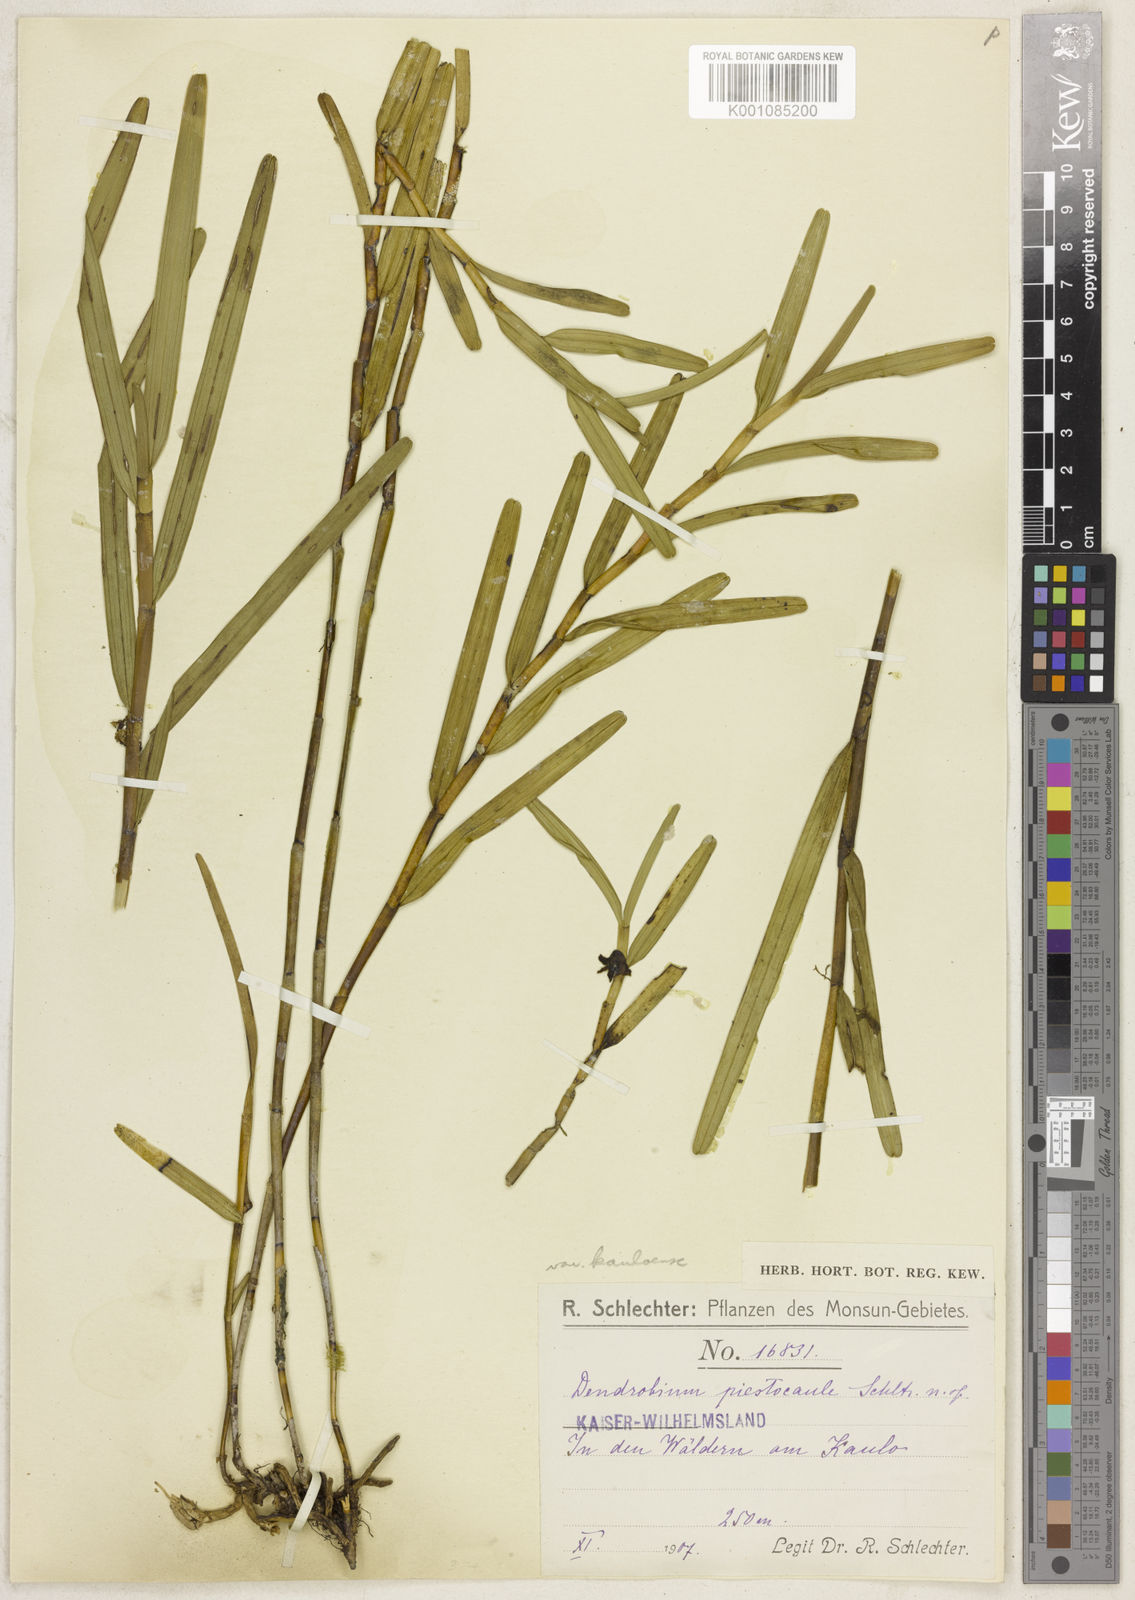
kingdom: Plantae
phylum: Tracheophyta
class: Liliopsida
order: Asparagales
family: Orchidaceae
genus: Dendrobium
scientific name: Dendrobium piestocaulon
